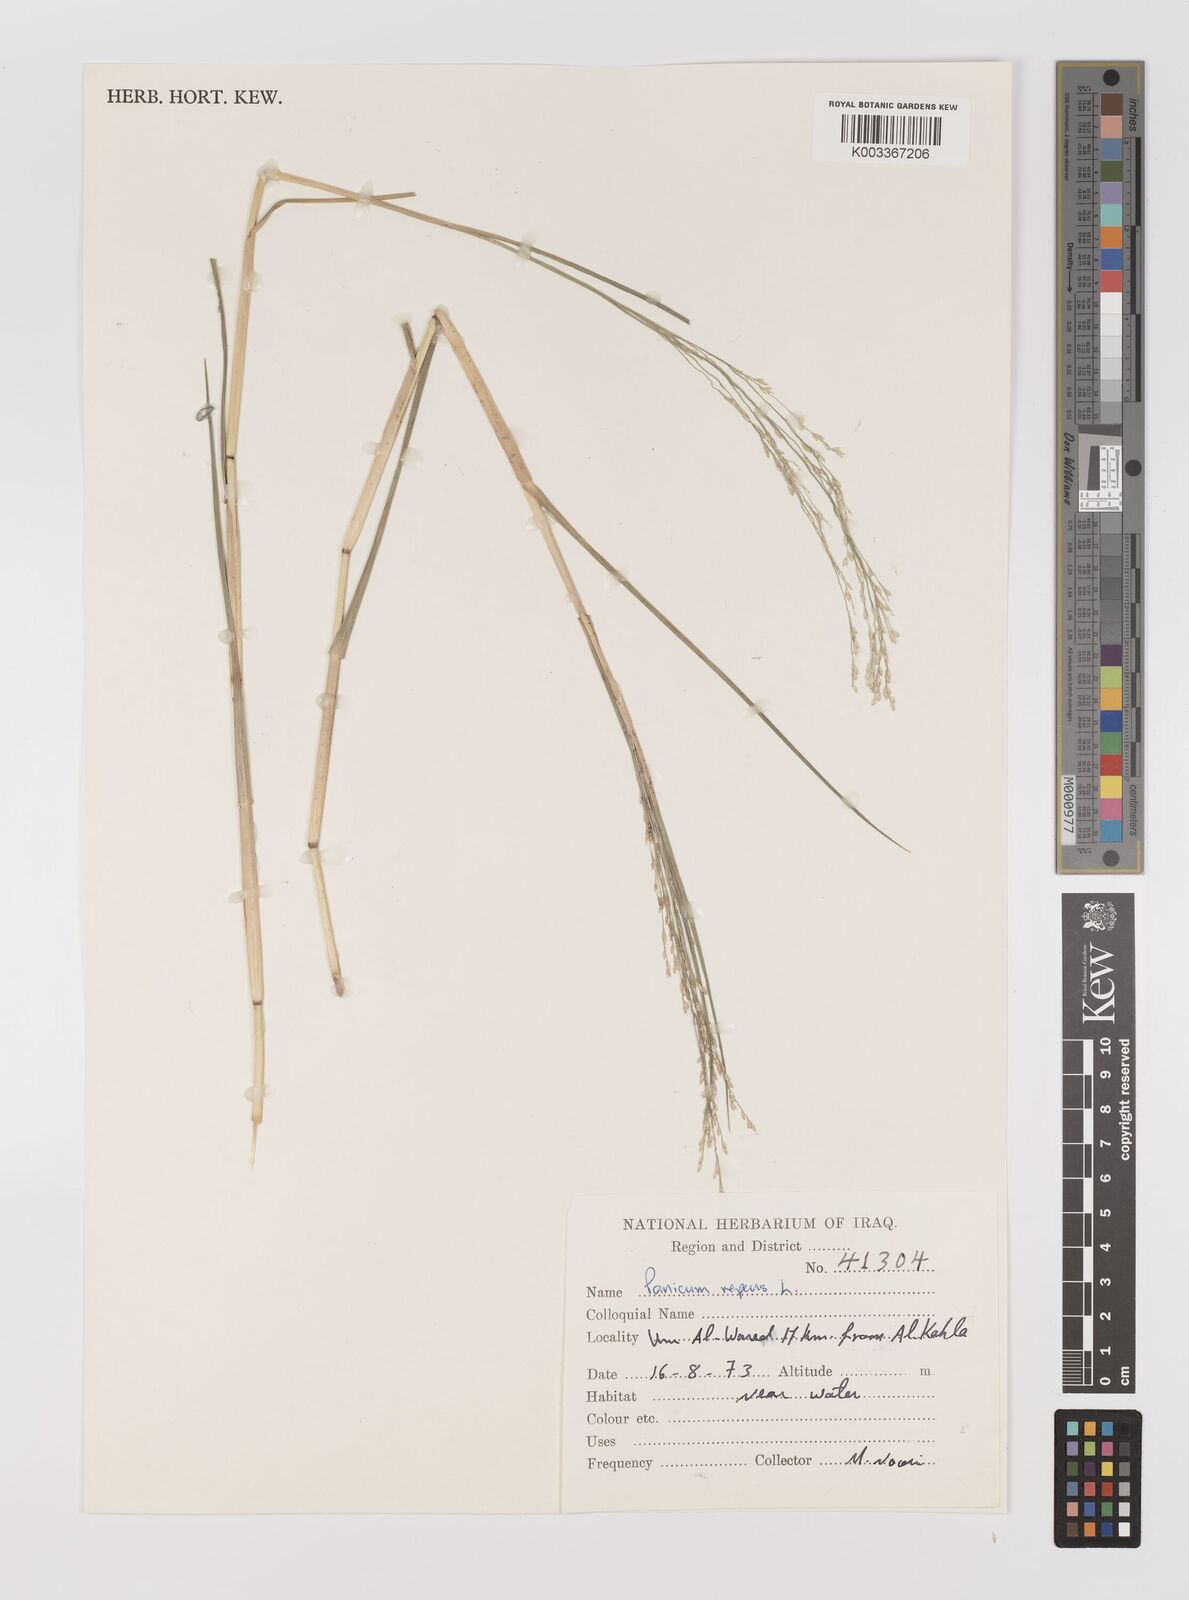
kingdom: Plantae
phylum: Tracheophyta
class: Liliopsida
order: Poales
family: Poaceae
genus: Panicum
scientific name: Panicum repens
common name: Torpedo grass
